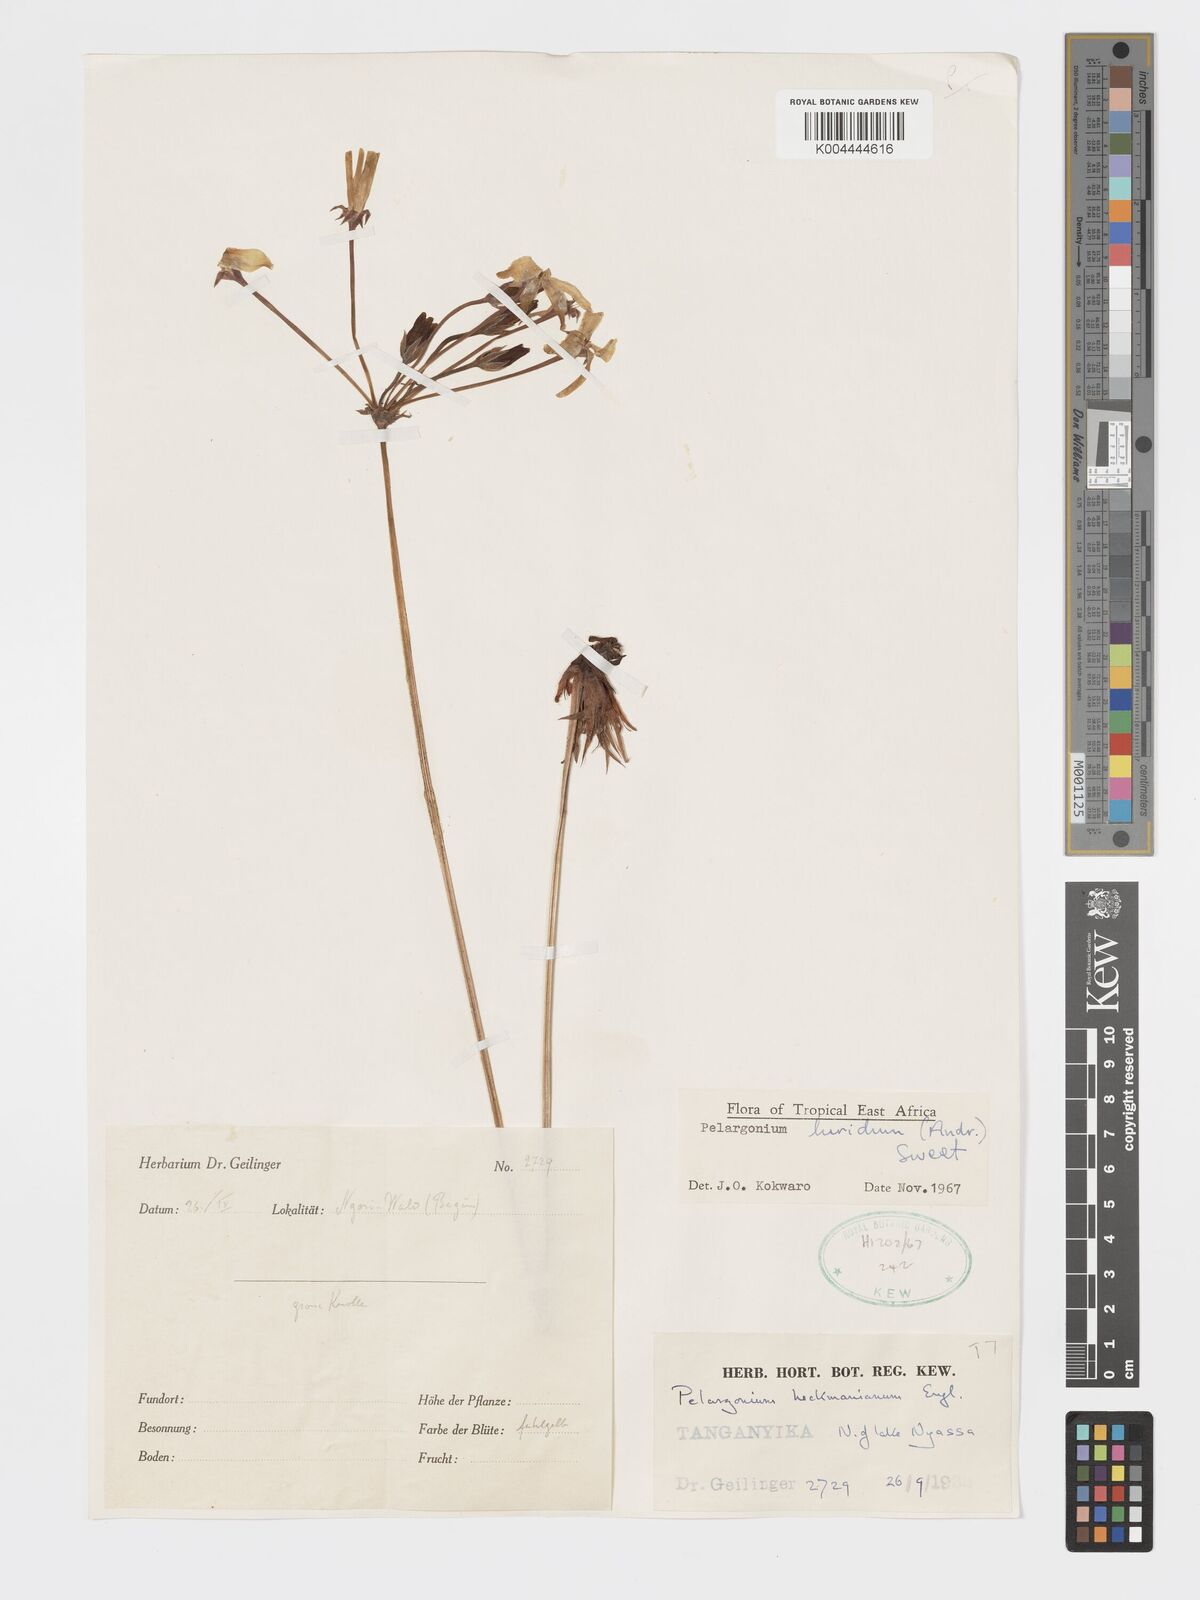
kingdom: Plantae
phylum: Tracheophyta
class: Magnoliopsida
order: Geraniales
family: Geraniaceae
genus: Pelargonium
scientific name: Pelargonium luridum
